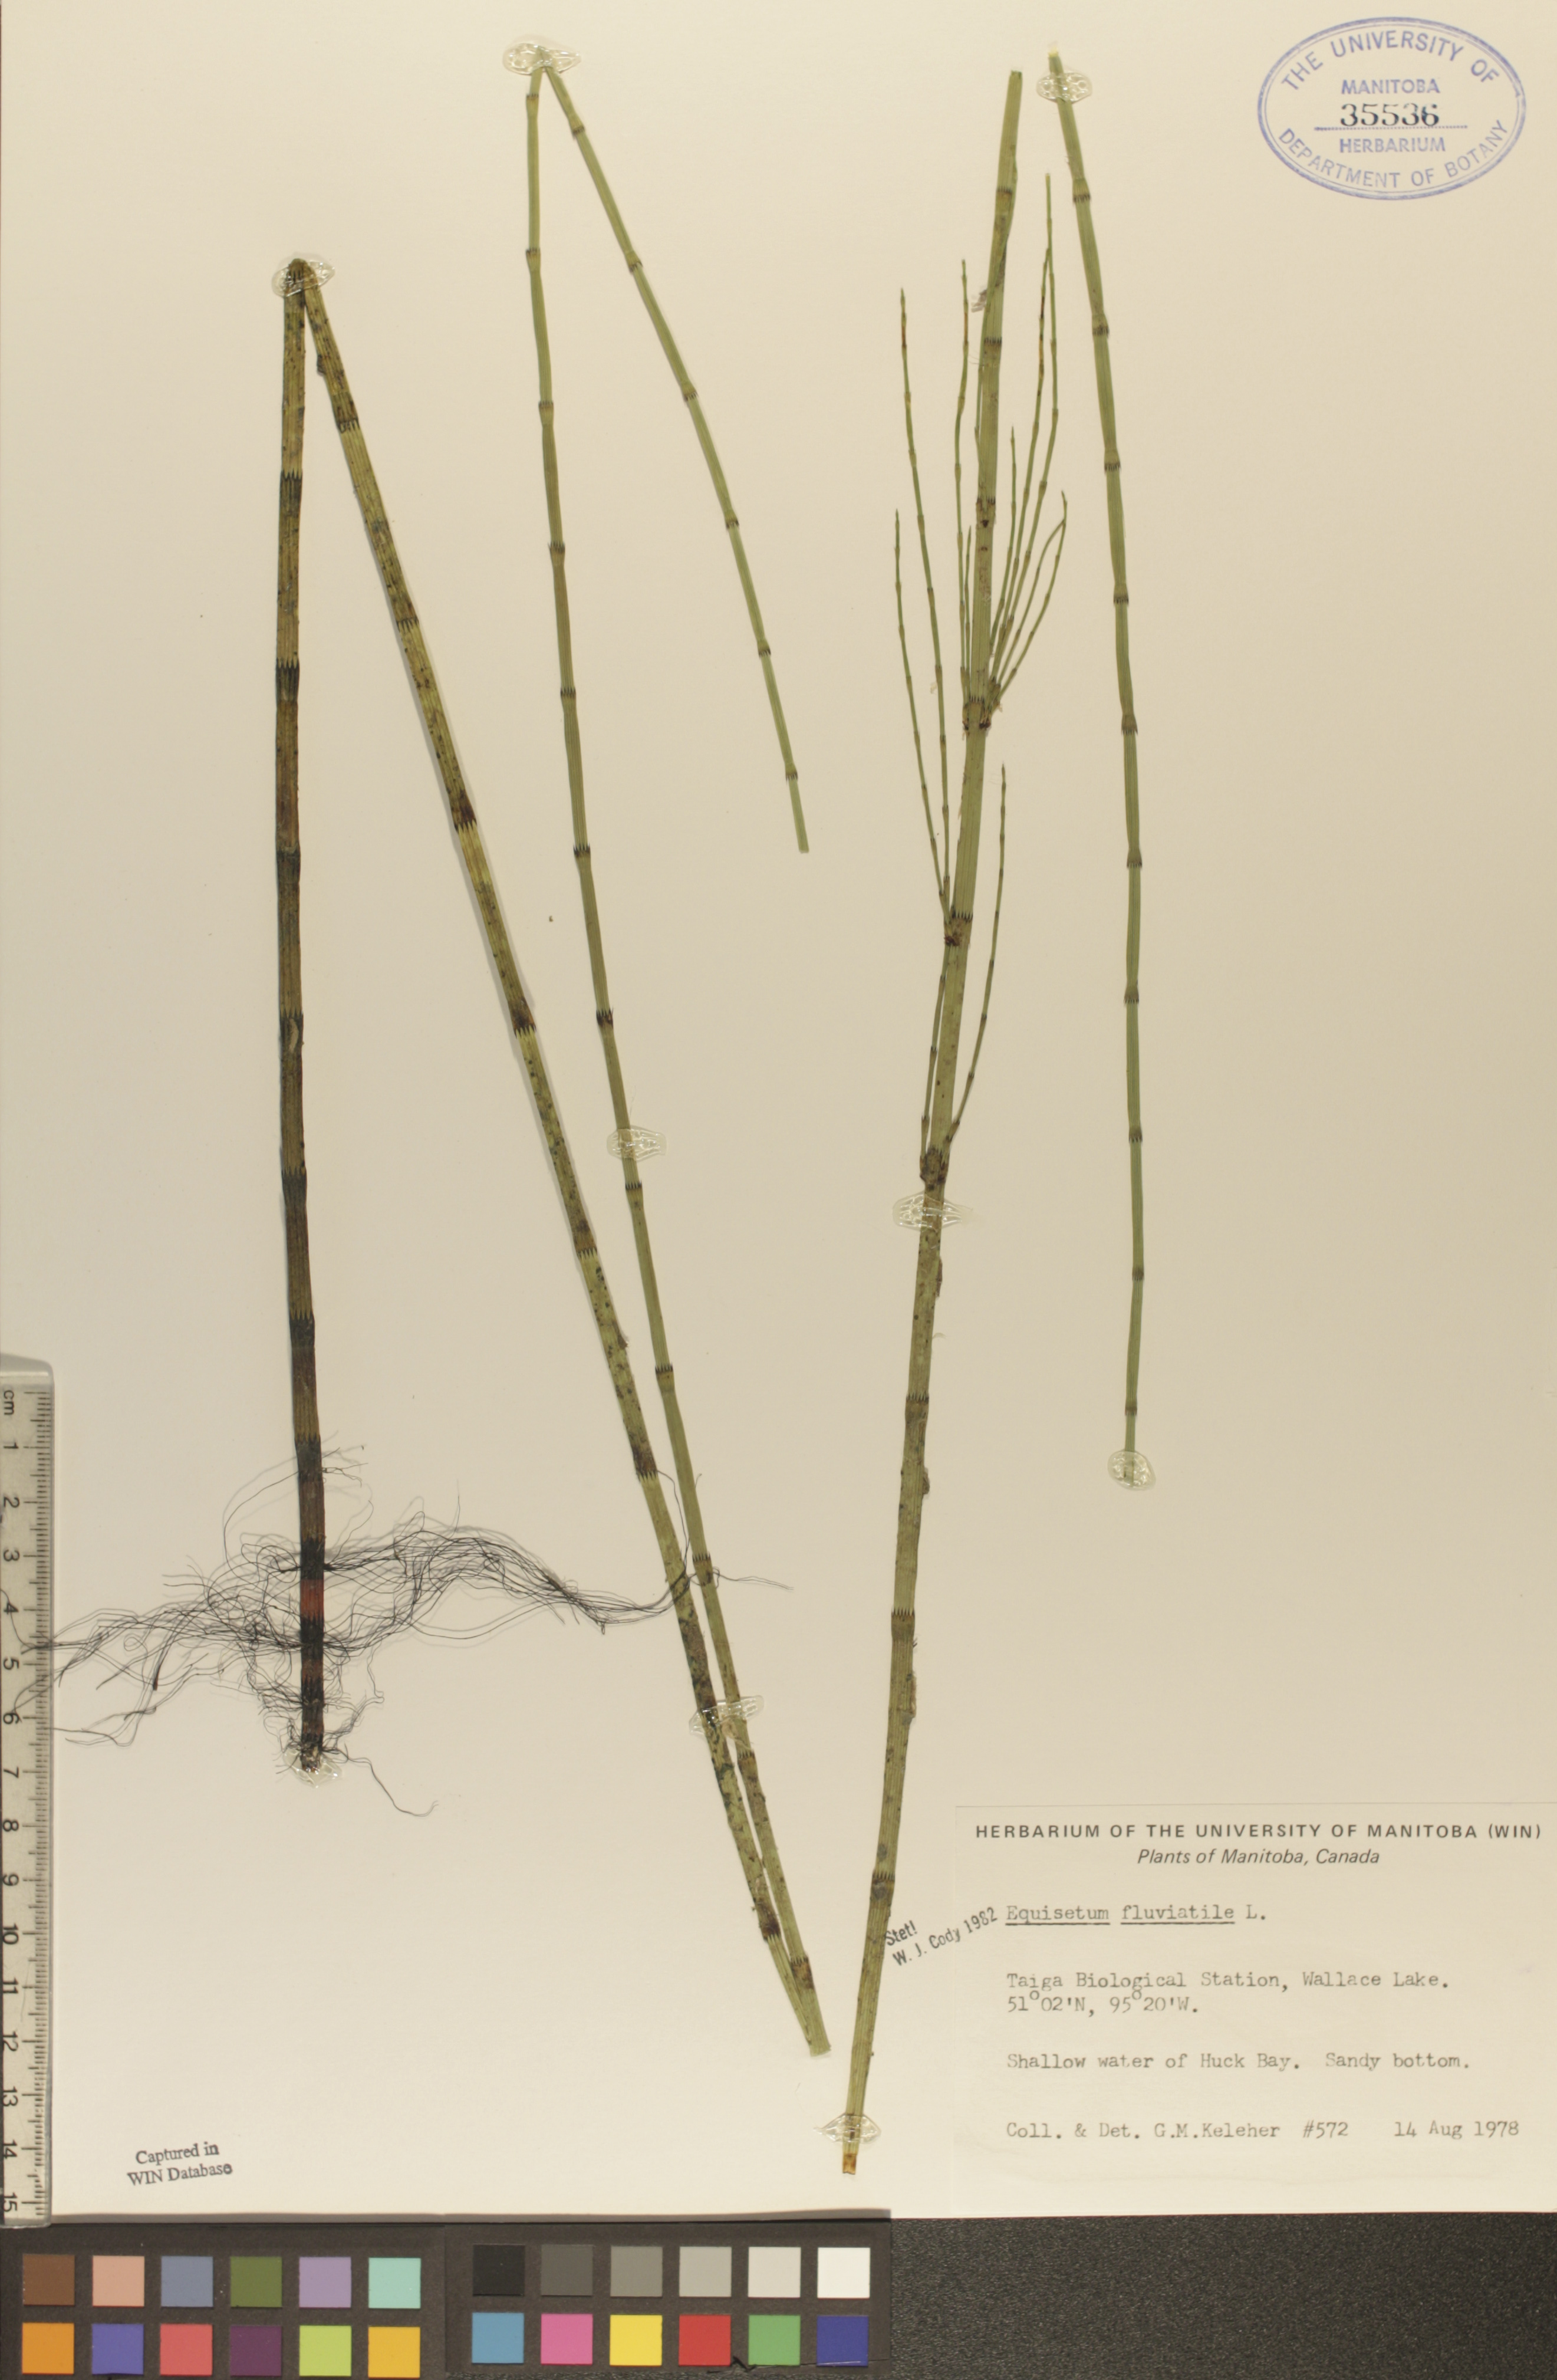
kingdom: Plantae
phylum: Tracheophyta
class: Polypodiopsida
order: Equisetales
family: Equisetaceae
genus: Equisetum
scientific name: Equisetum fluviatile
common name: Water horsetail
